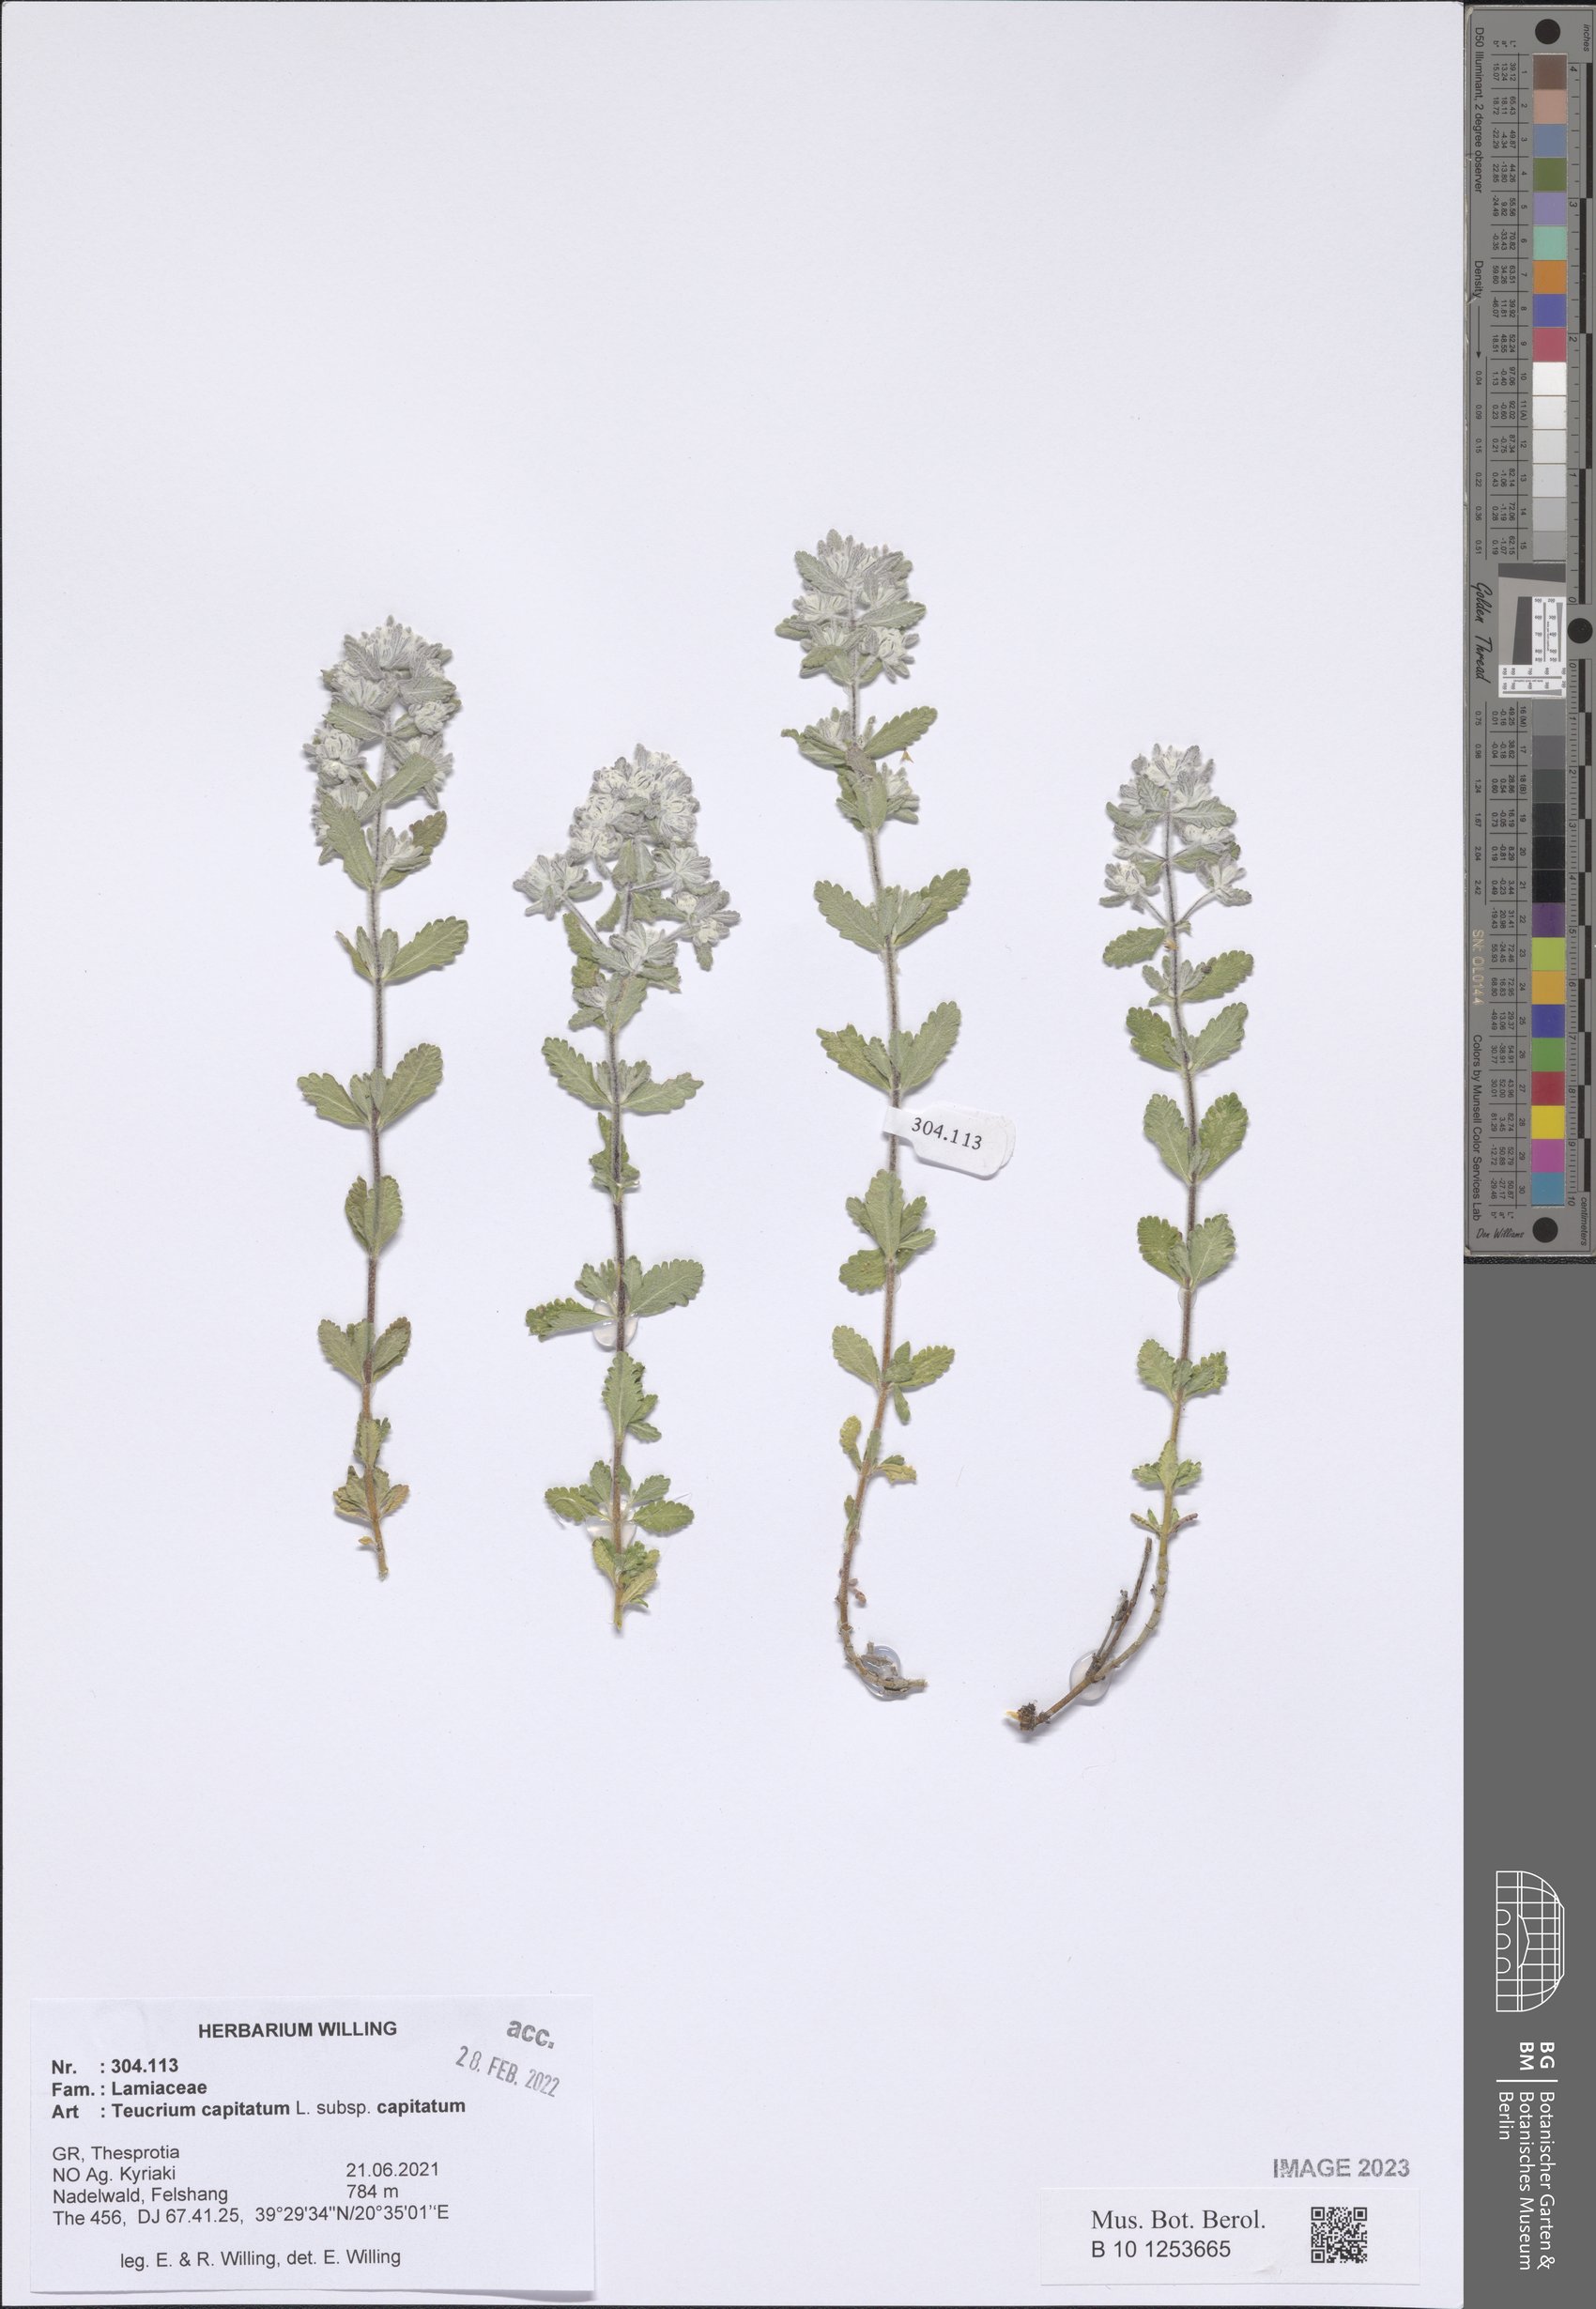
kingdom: Plantae
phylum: Tracheophyta
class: Magnoliopsida
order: Lamiales
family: Lamiaceae
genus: Teucrium
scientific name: Teucrium capitatum
